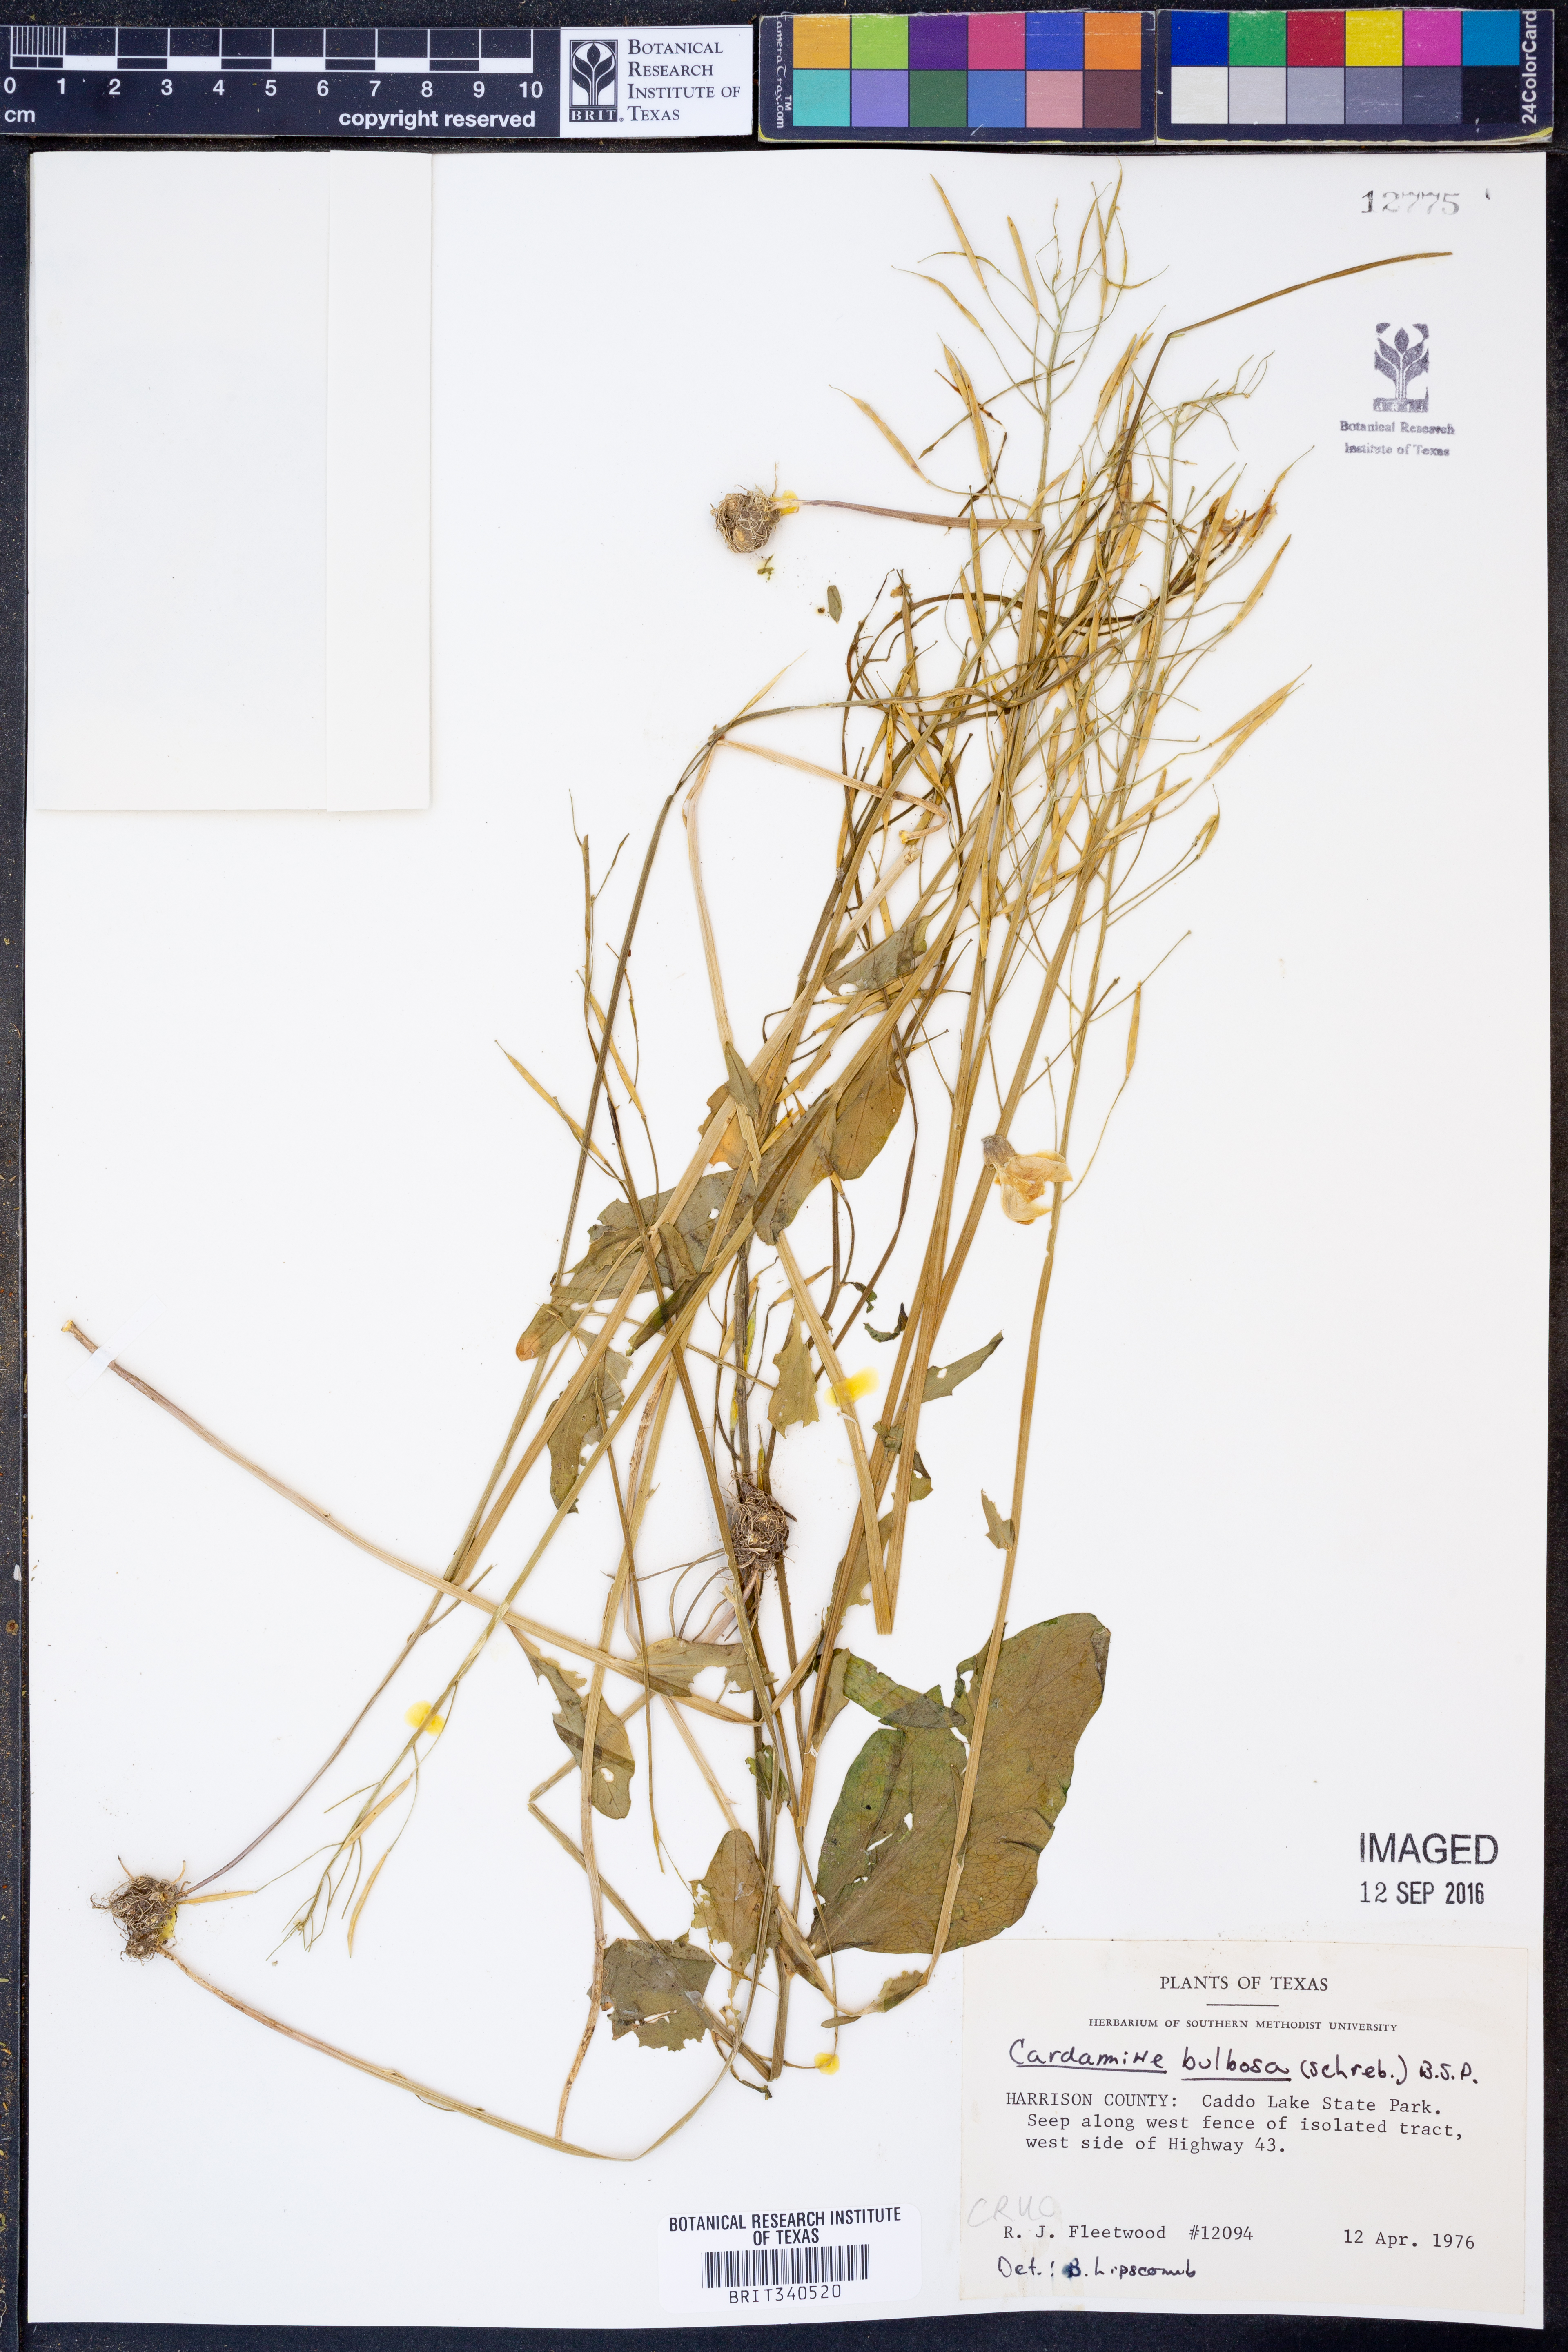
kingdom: Plantae
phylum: Tracheophyta
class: Magnoliopsida
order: Brassicales
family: Brassicaceae
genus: Cardamine
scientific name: Cardamine bulbosa
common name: Spring cress
